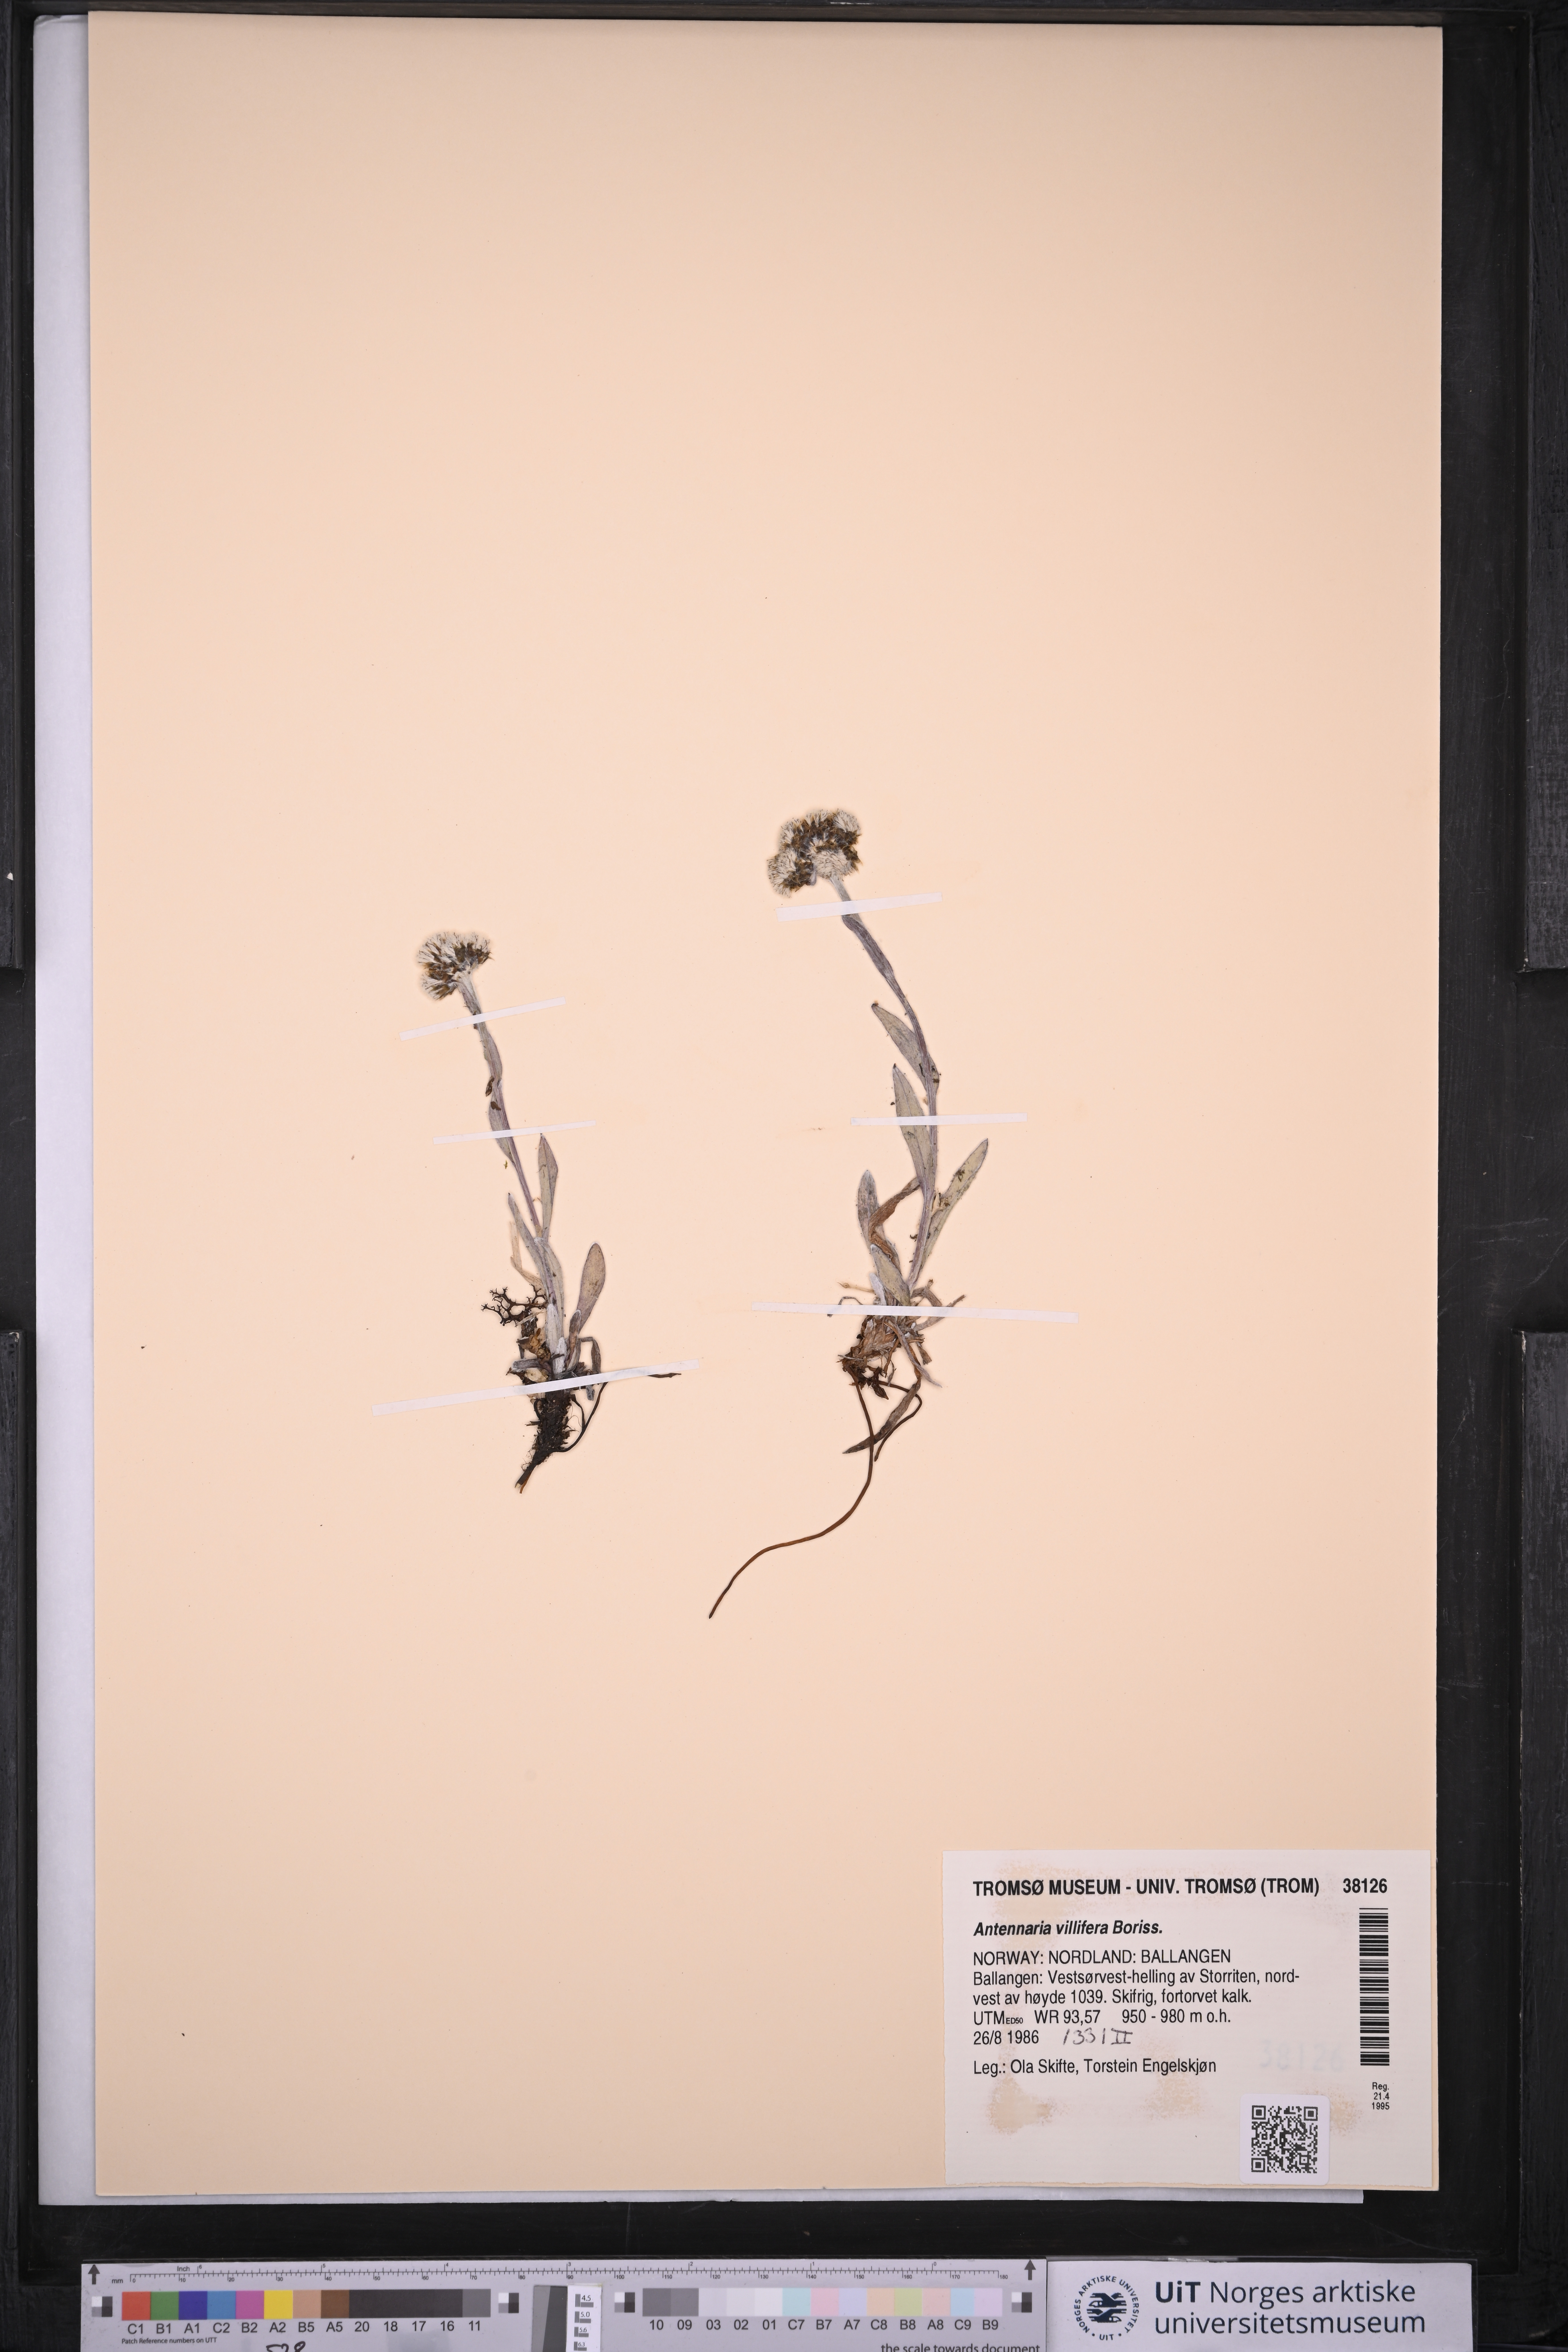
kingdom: Plantae
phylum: Tracheophyta
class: Magnoliopsida
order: Asterales
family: Asteraceae
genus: Antennaria
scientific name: Antennaria lanata
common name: Woolly pussytoes
